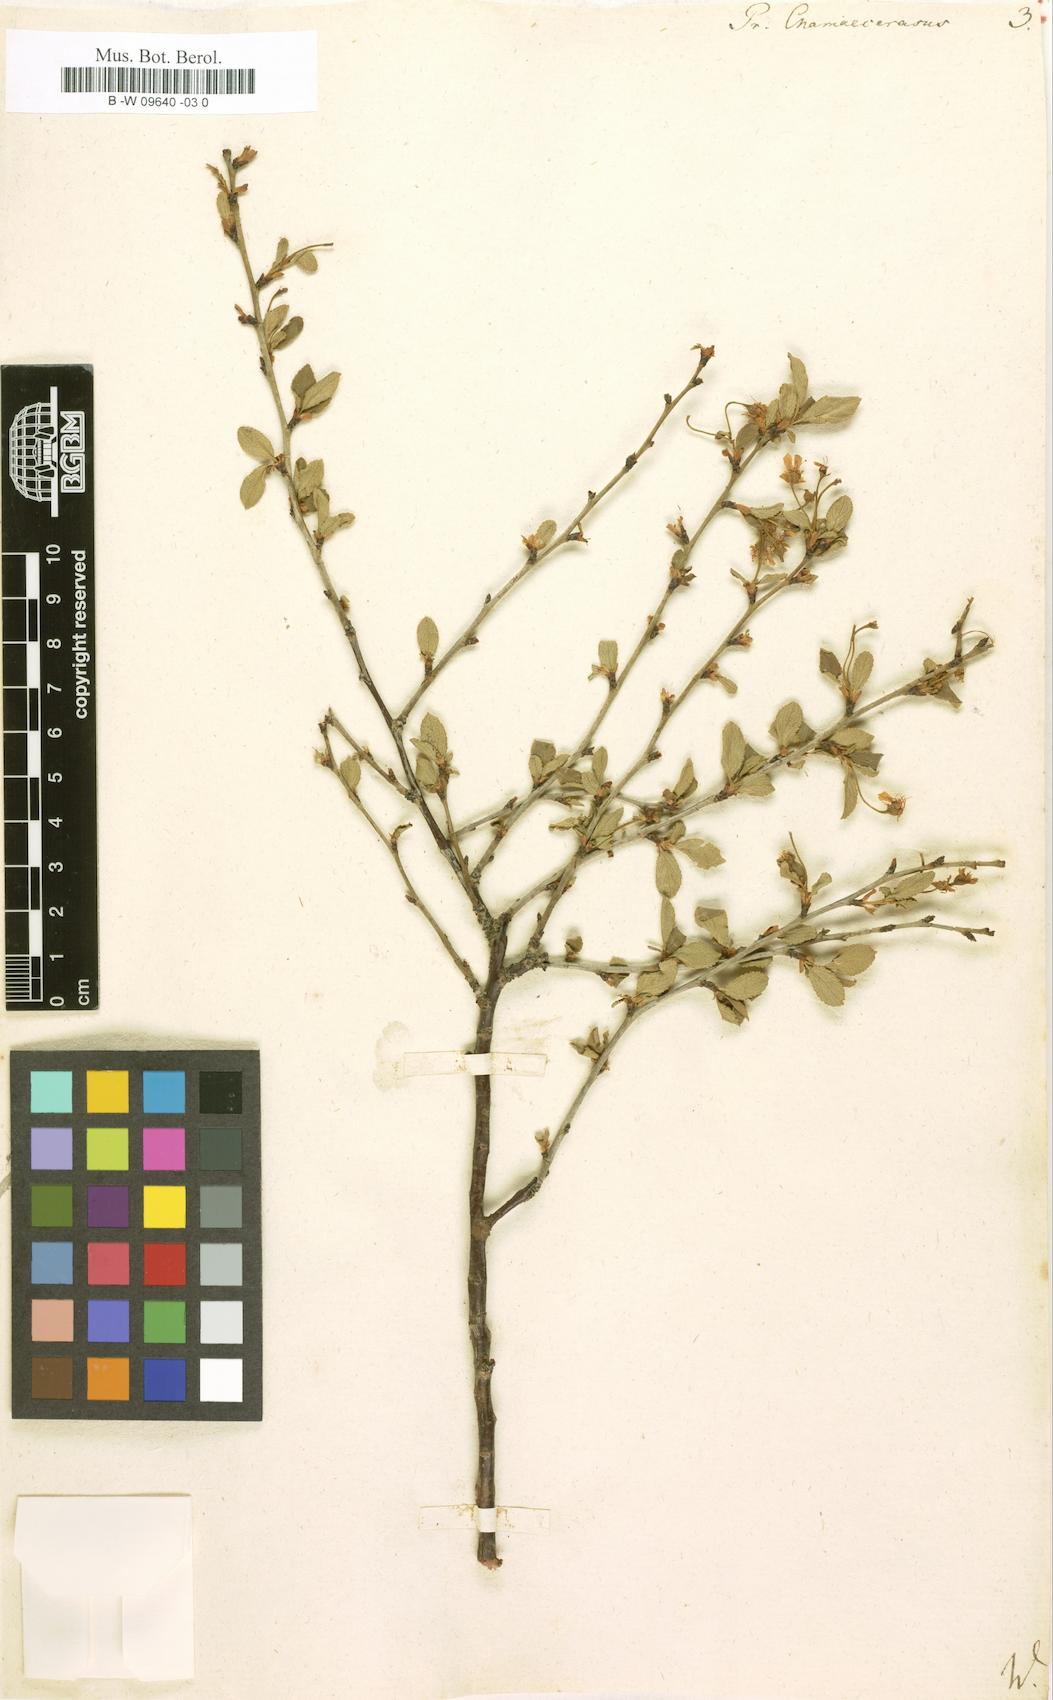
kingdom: Plantae
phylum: Tracheophyta
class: Magnoliopsida
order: Rosales
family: Rosaceae
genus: Prunus
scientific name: Prunus fruticosa
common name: European dwarf cherry
